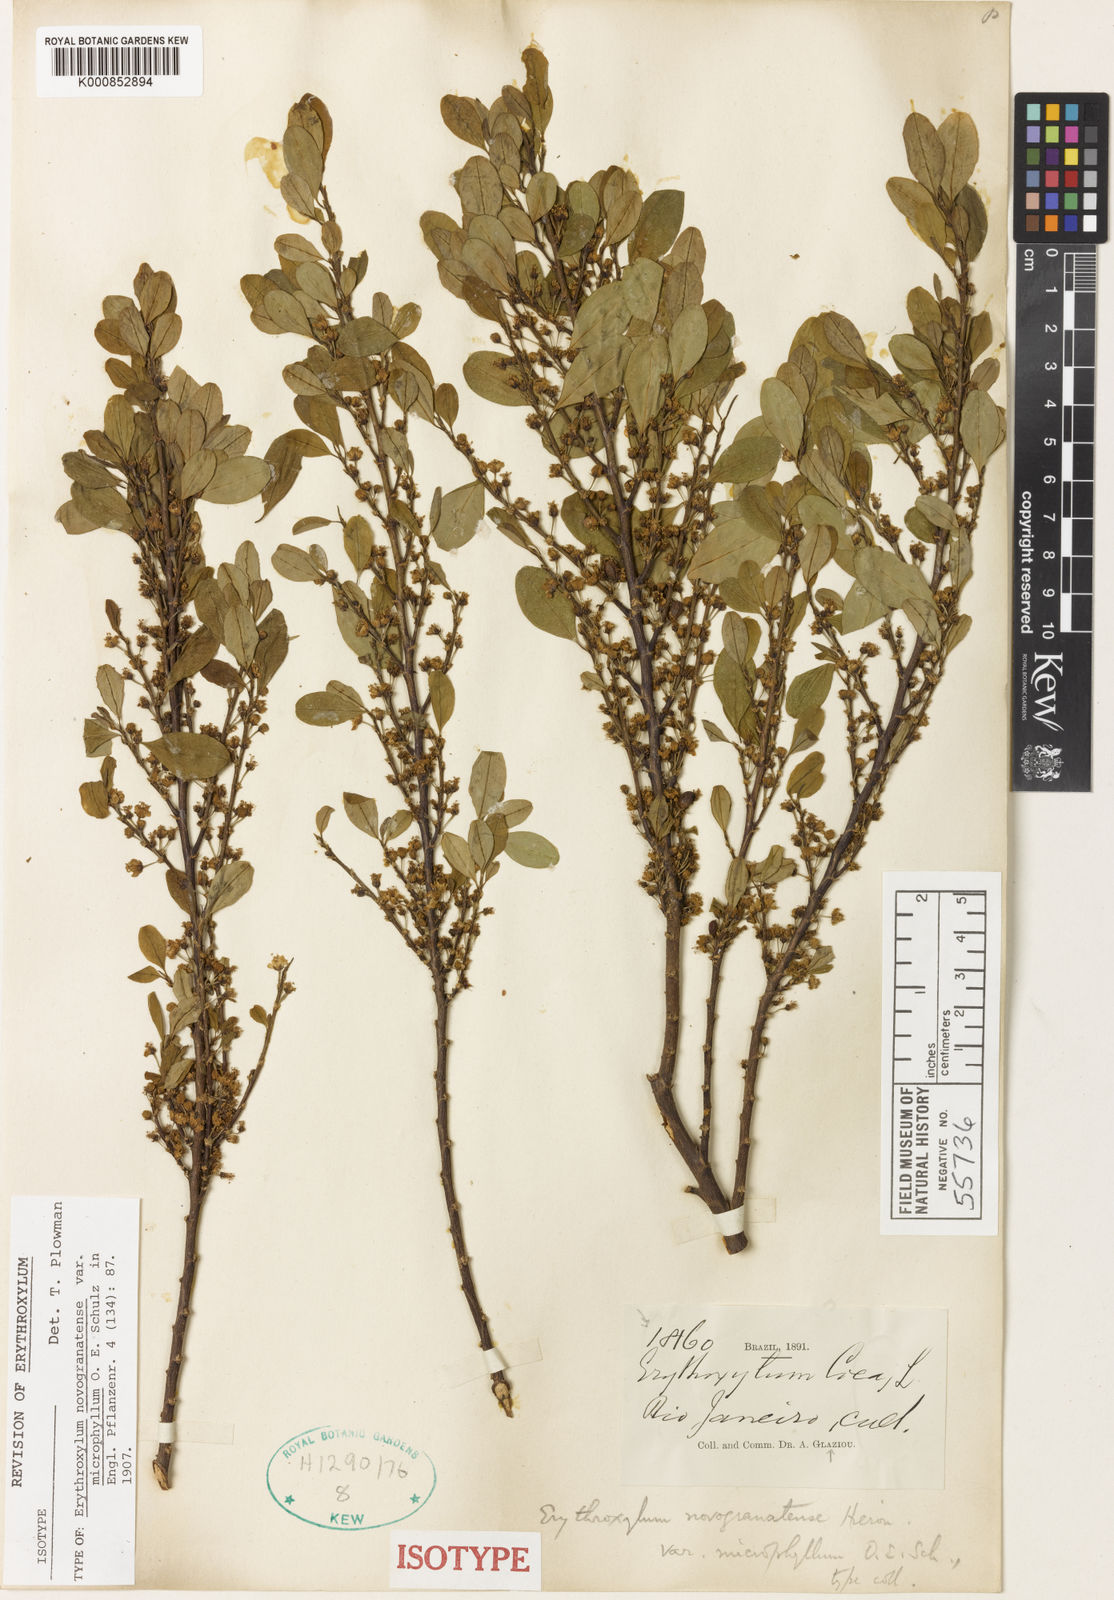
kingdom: Plantae
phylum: Tracheophyta
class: Magnoliopsida
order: Malpighiales
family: Erythroxylaceae
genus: Erythroxylum
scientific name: Erythroxylum novogranatense
